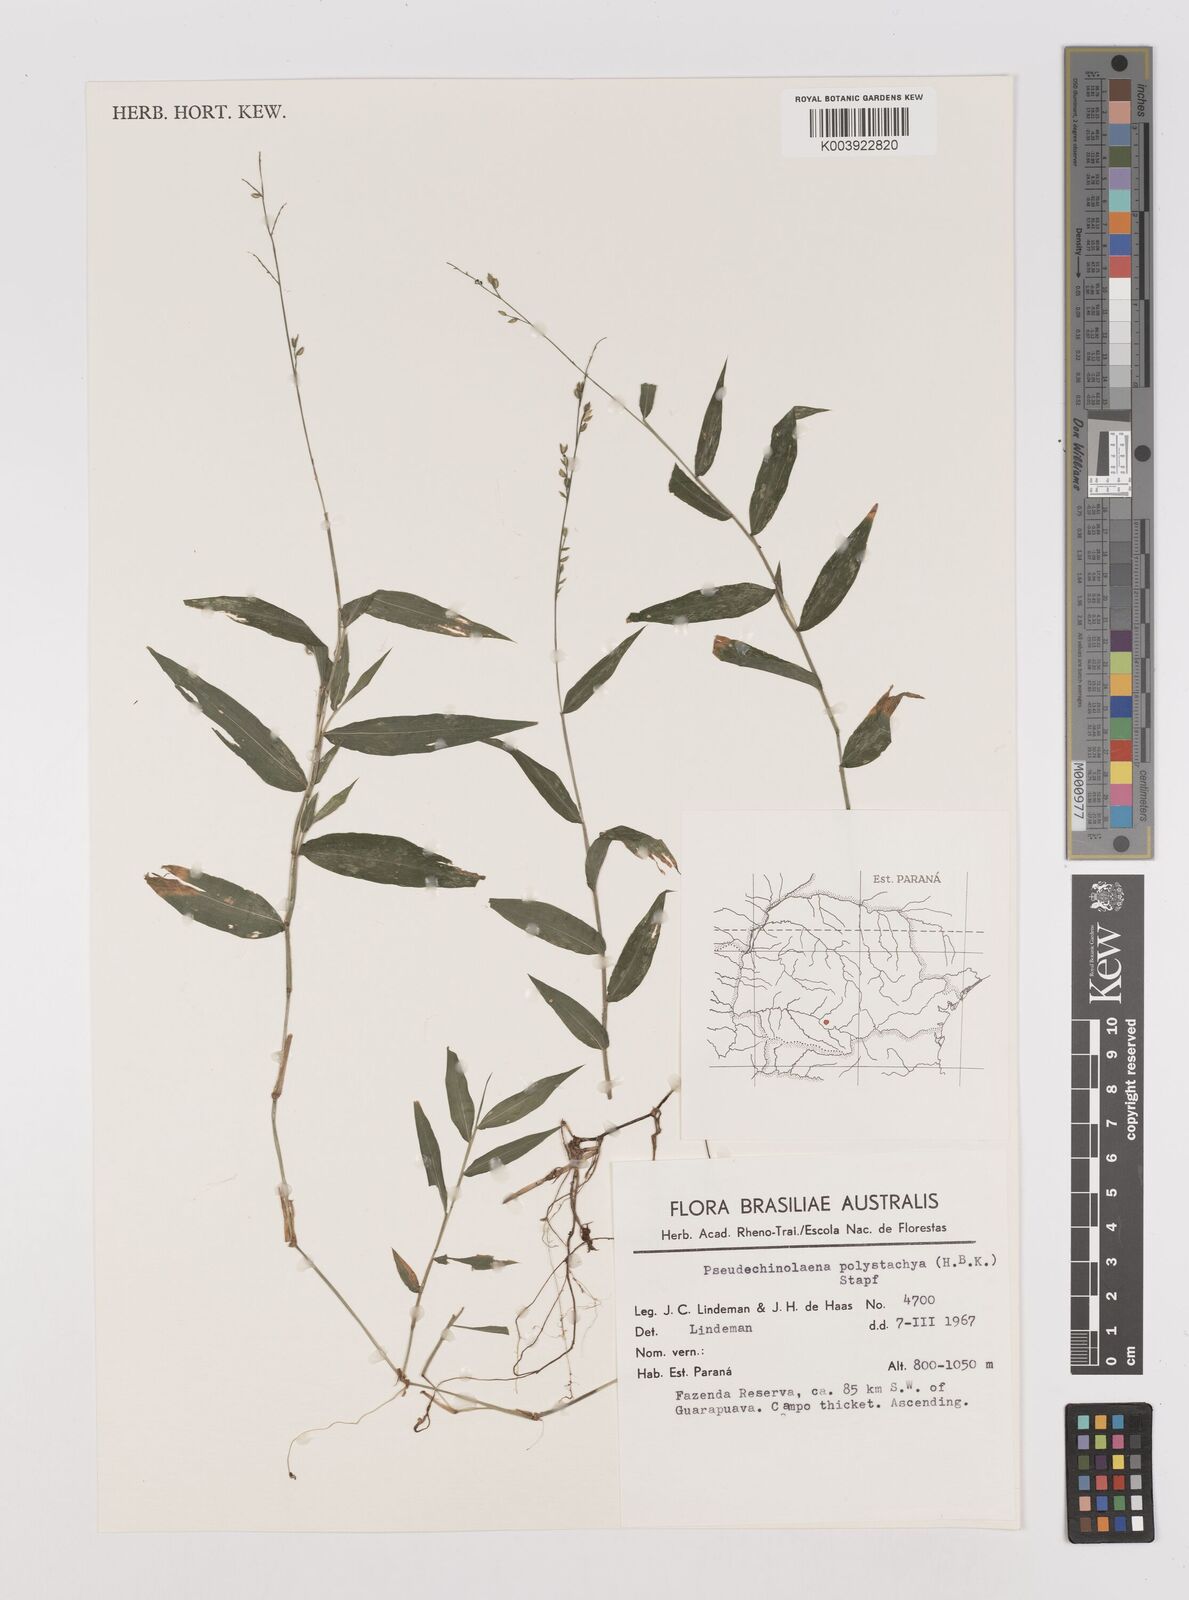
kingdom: Plantae
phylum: Tracheophyta
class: Liliopsida
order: Poales
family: Poaceae
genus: Pseudechinolaena
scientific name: Pseudechinolaena polystachya
